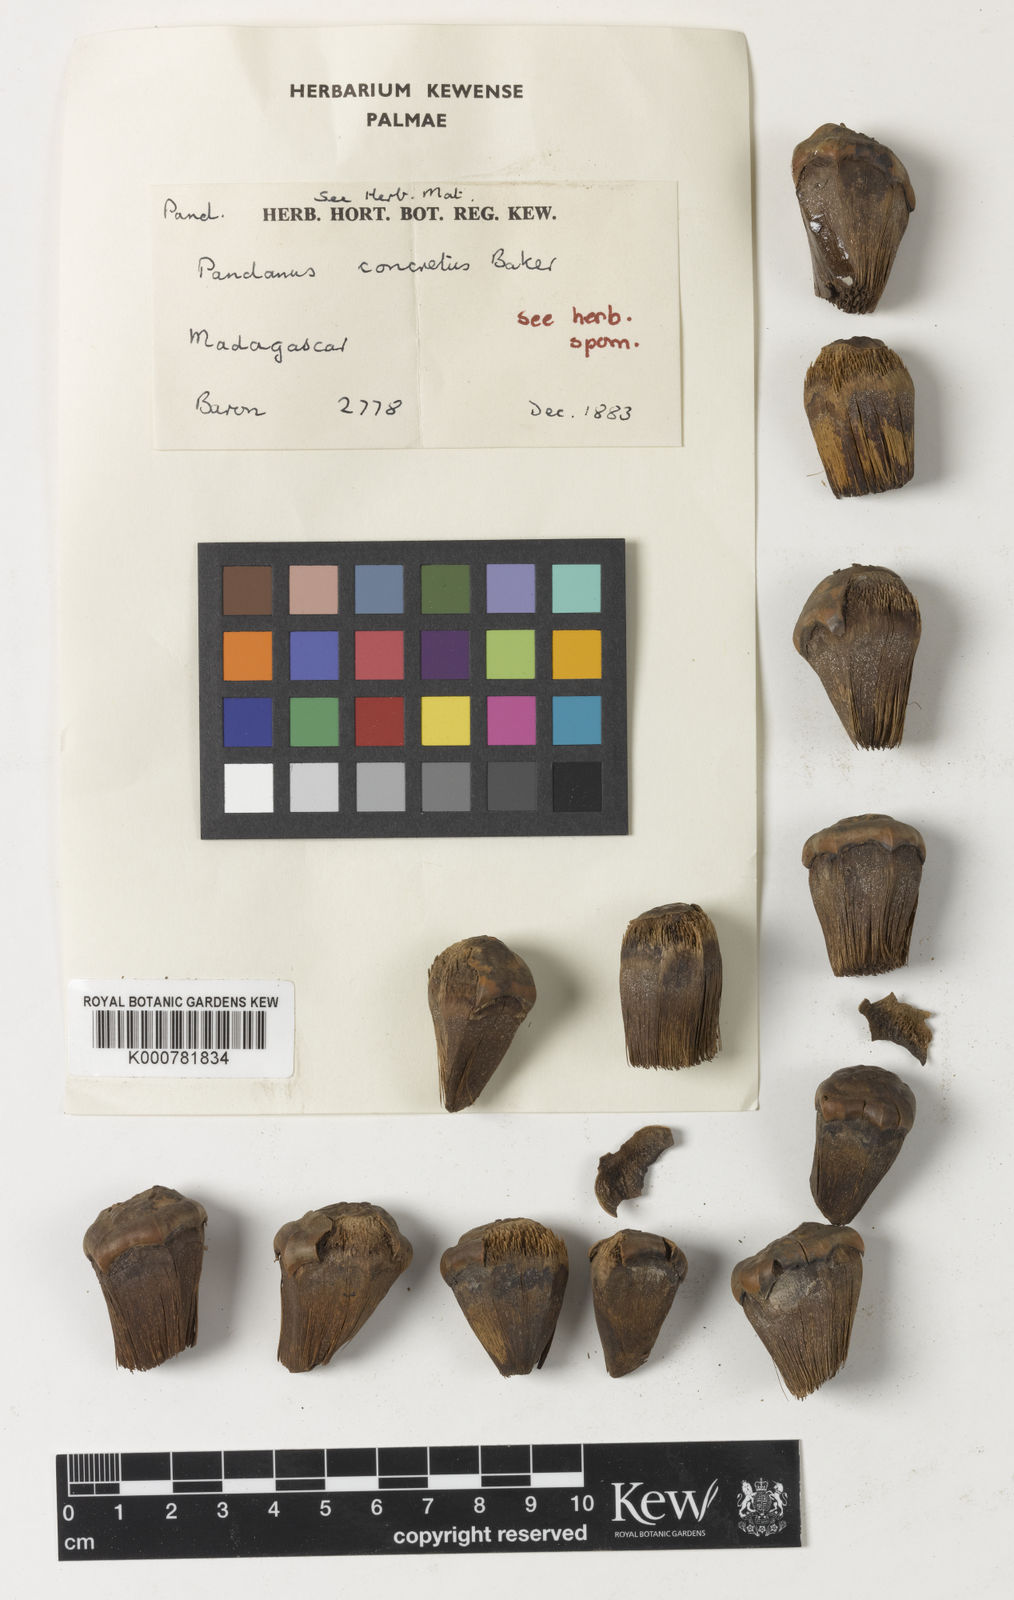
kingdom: Plantae
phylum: Tracheophyta
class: Liliopsida
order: Pandanales
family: Pandanaceae
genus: Pandanus
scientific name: Pandanus concretus
